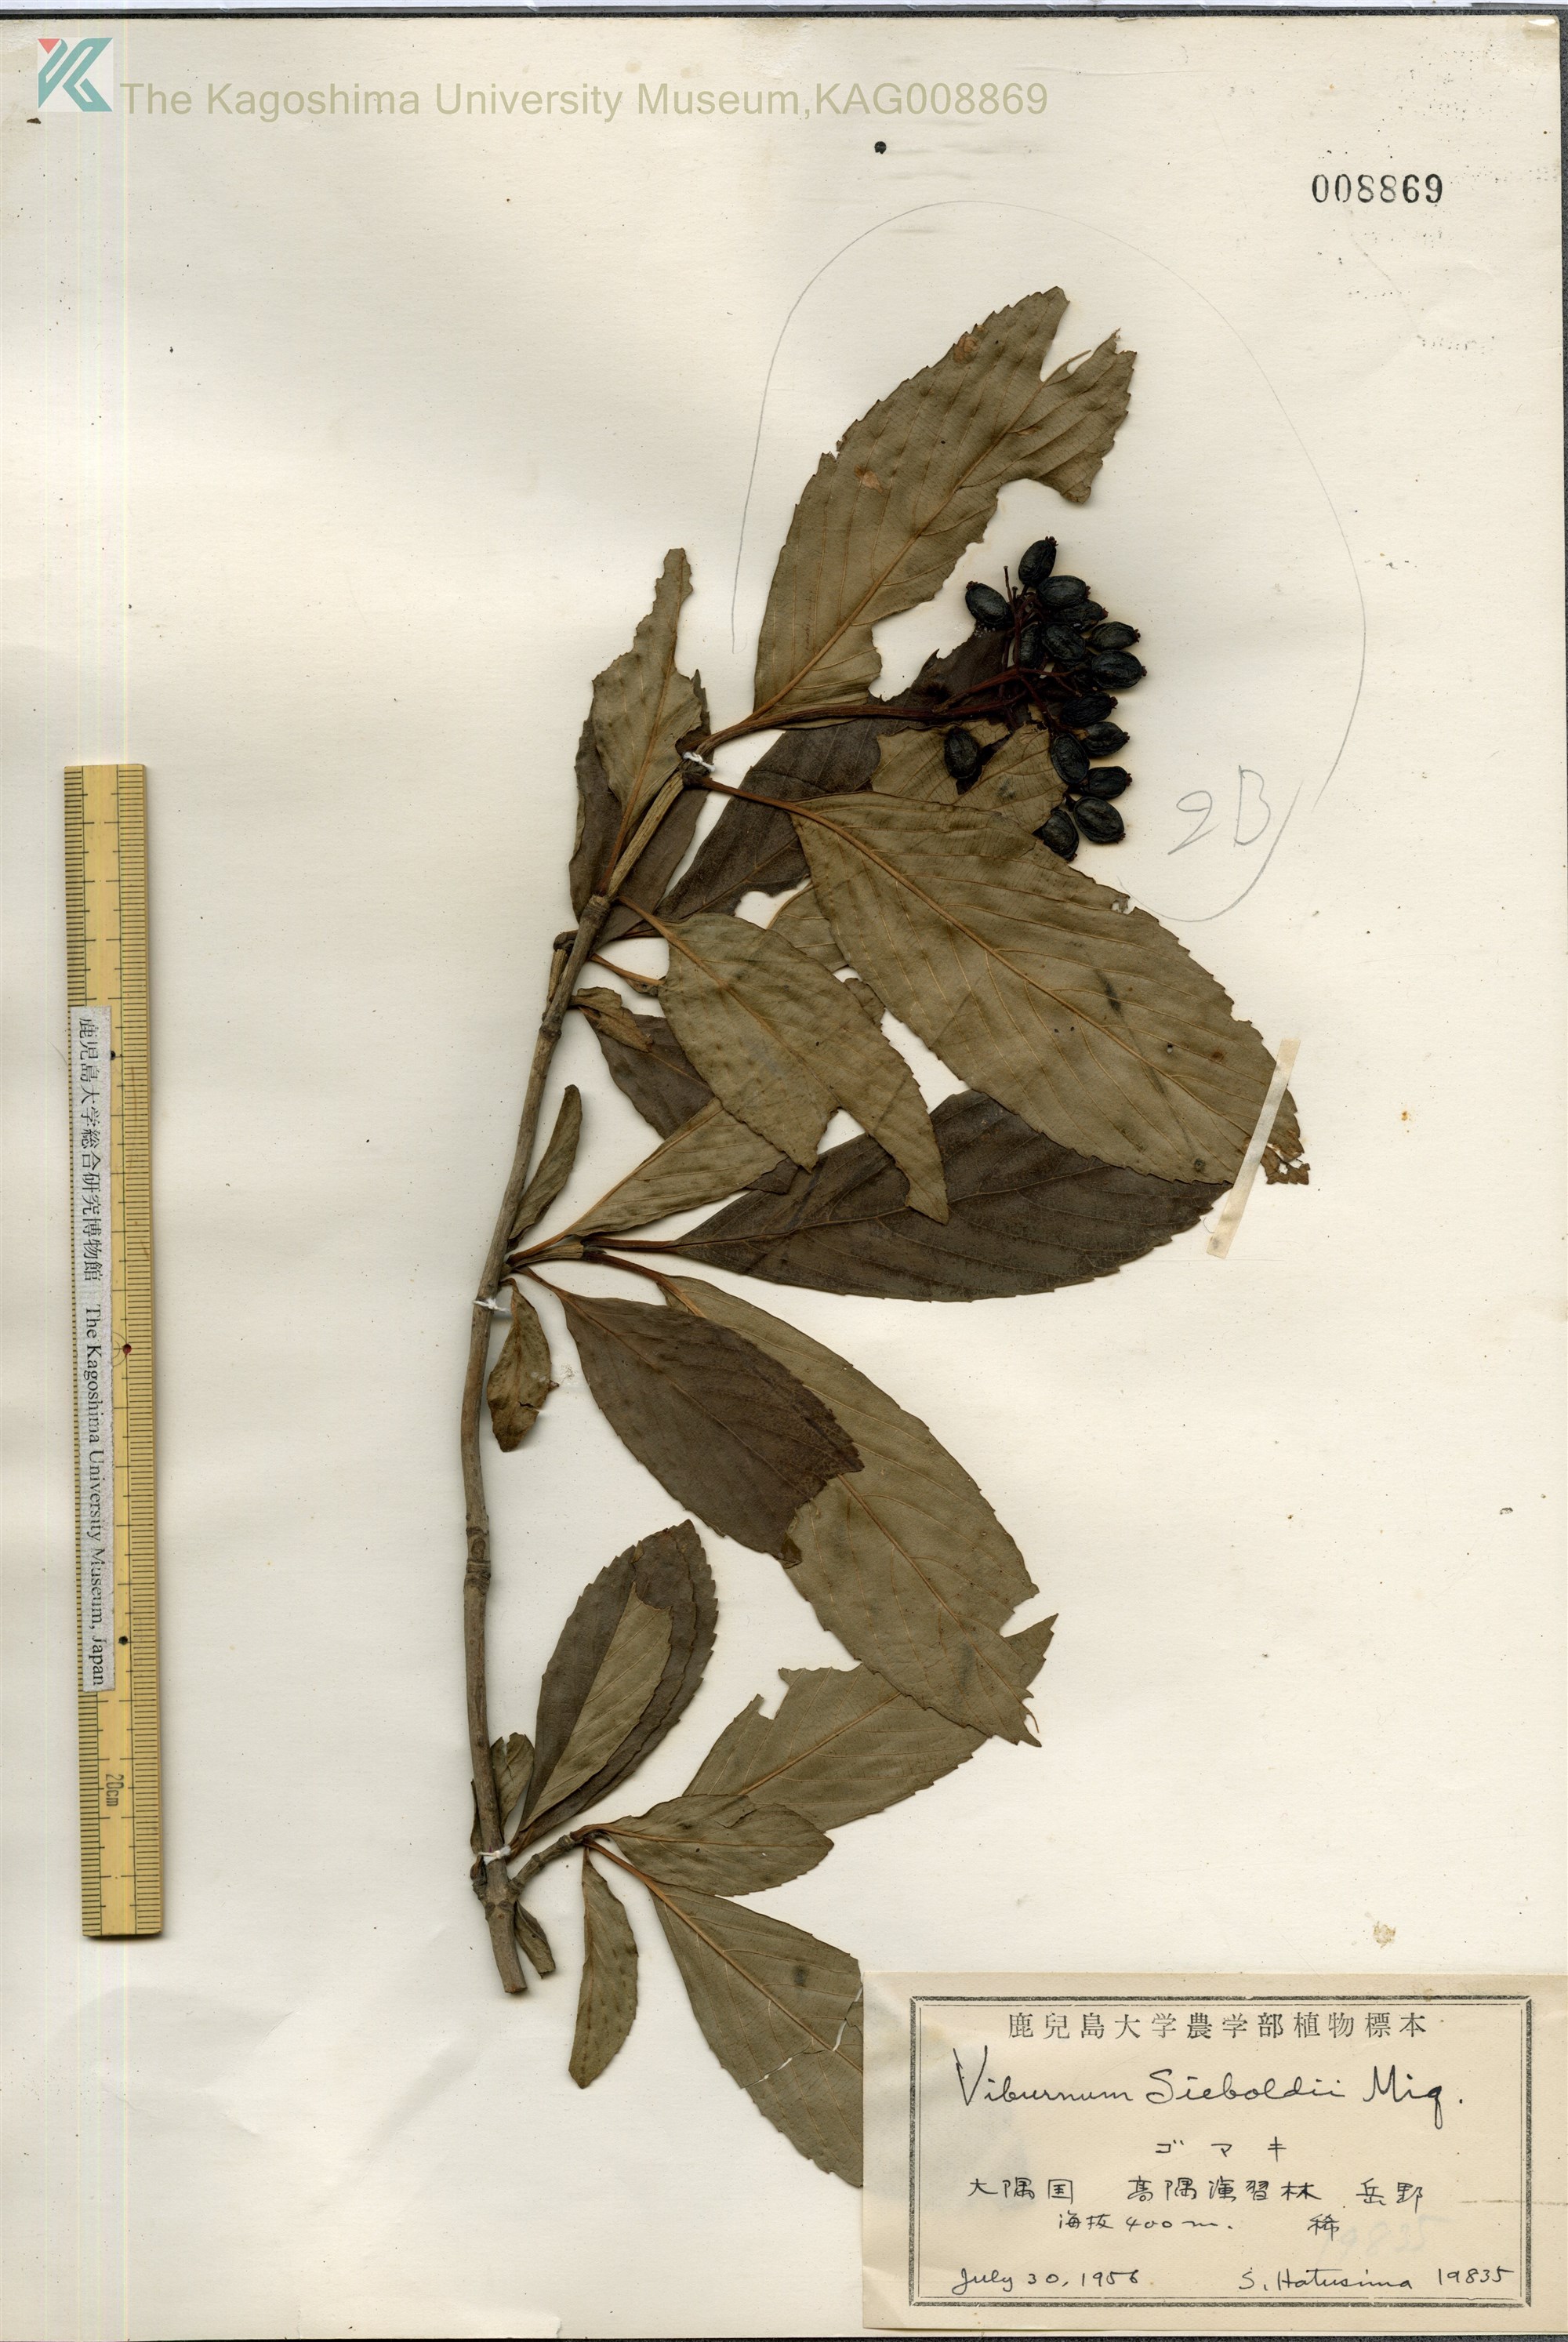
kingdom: Plantae
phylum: Tracheophyta
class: Magnoliopsida
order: Dipsacales
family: Viburnaceae
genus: Viburnum
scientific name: Viburnum sieboldii
